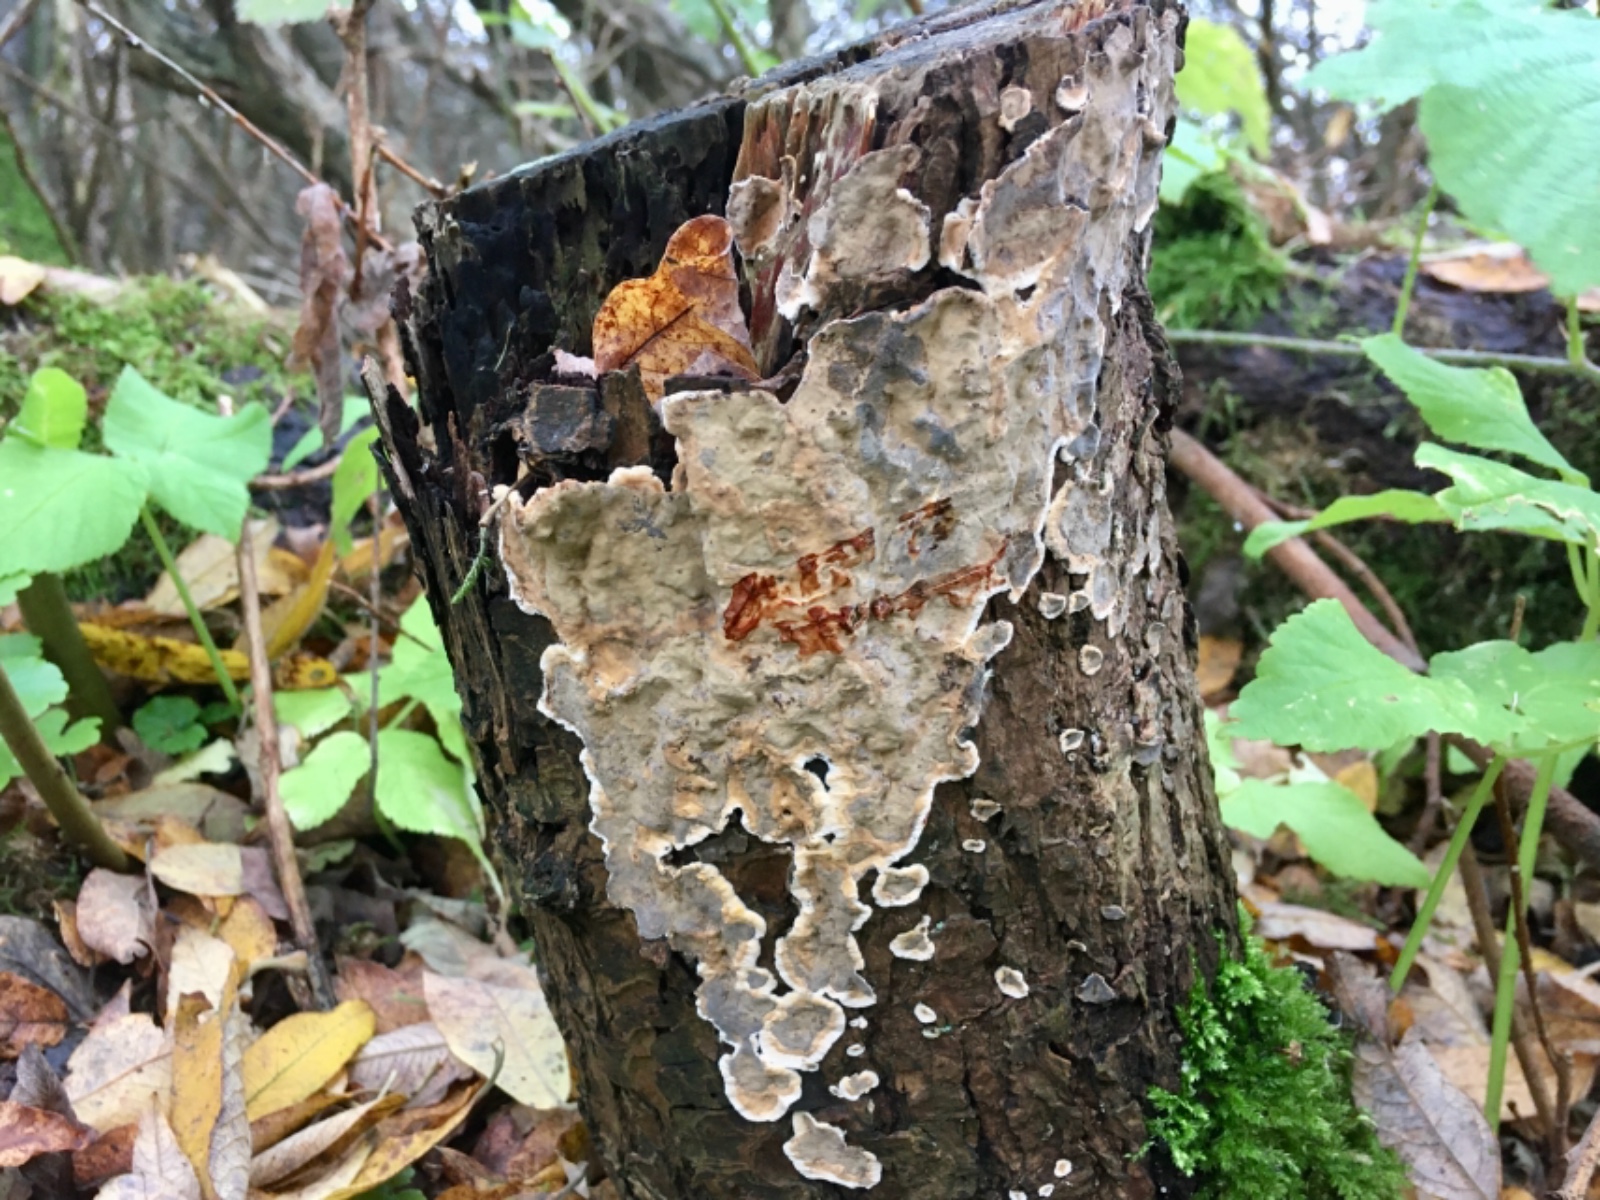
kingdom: Fungi
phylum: Basidiomycota
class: Agaricomycetes
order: Russulales
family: Stereaceae
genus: Stereum
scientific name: Stereum rugosum
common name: rynket lædersvamp
